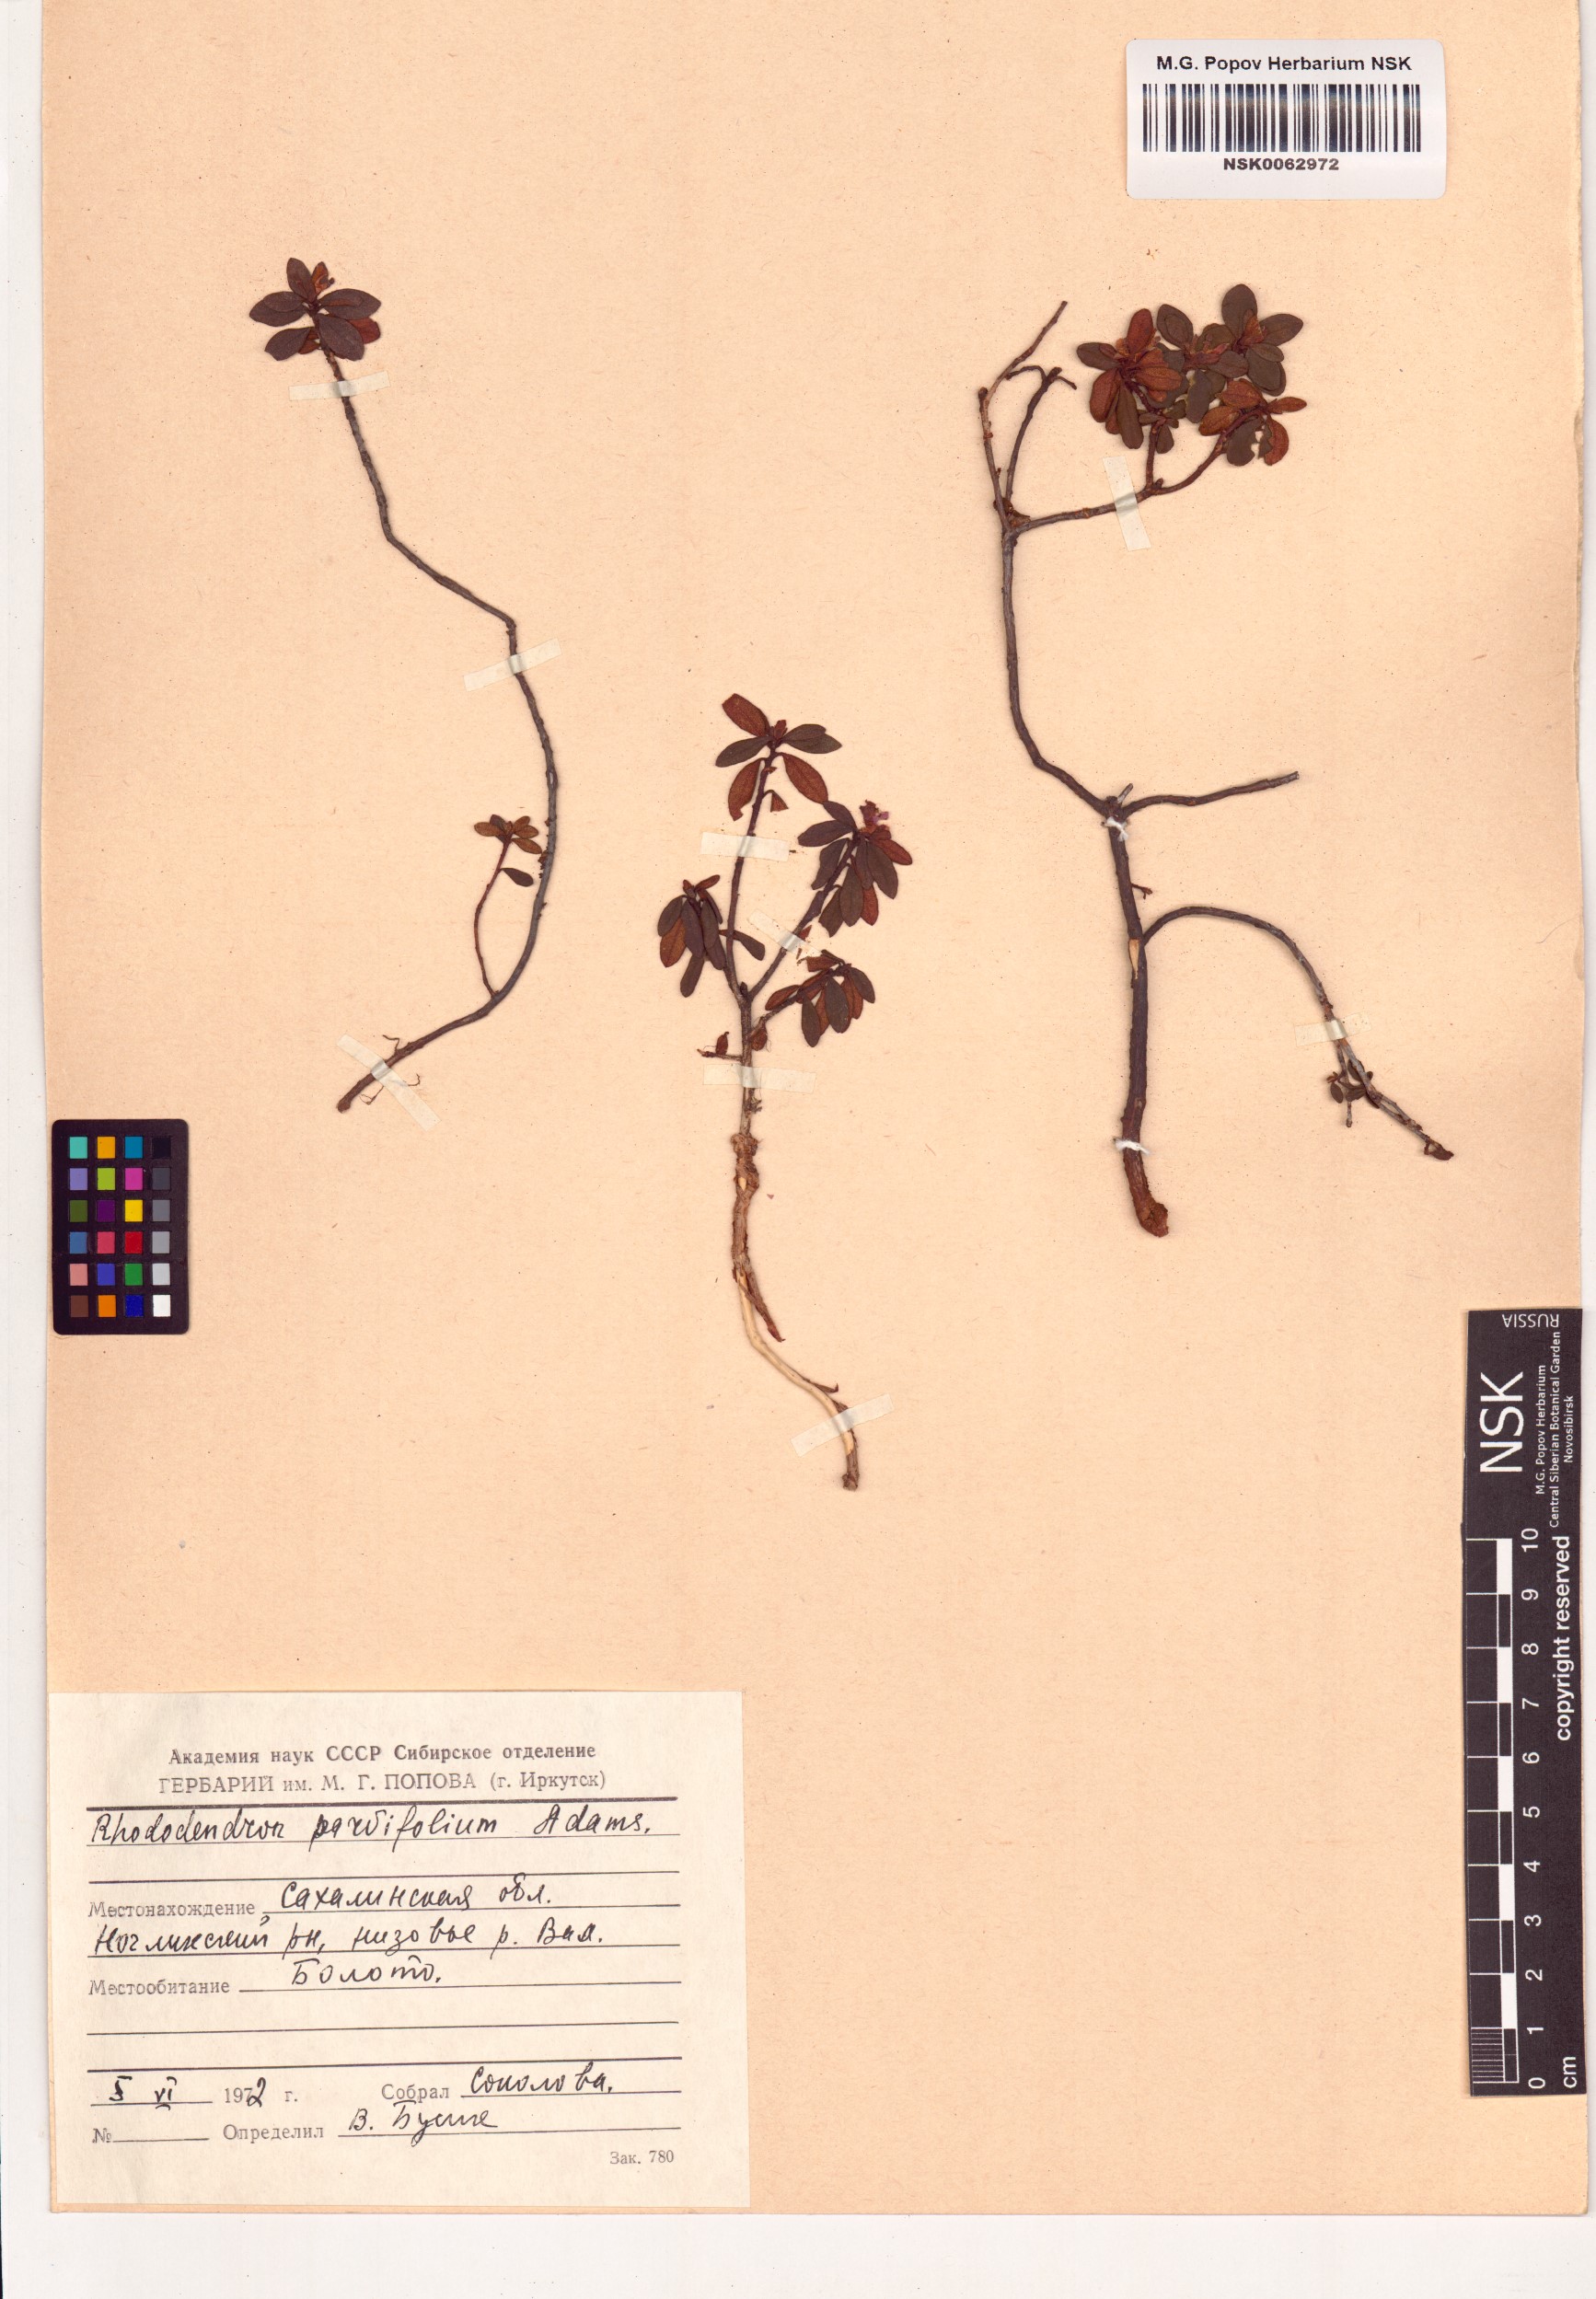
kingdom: Plantae
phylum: Tracheophyta
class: Magnoliopsida
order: Ericales
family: Ericaceae
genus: Rhododendron
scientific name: Rhododendron parvifolium
